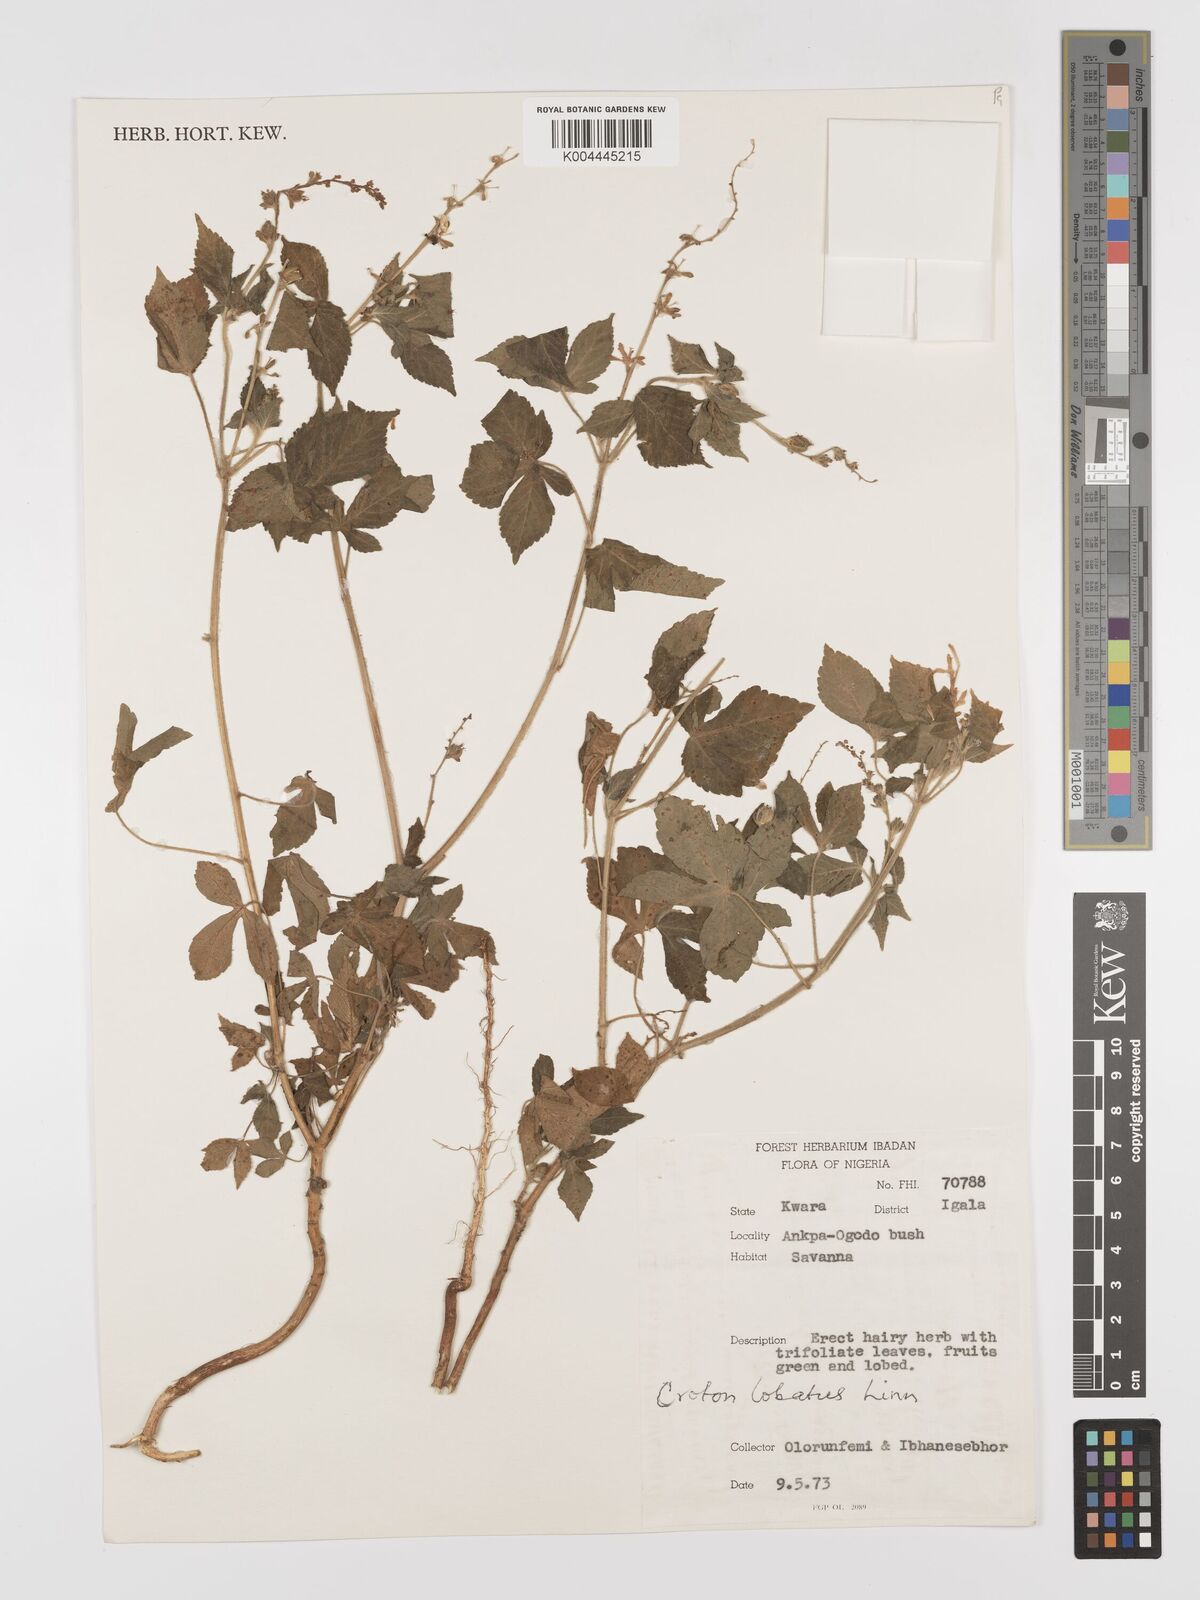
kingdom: Plantae
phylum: Tracheophyta
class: Magnoliopsida
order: Malpighiales
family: Euphorbiaceae
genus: Astraea
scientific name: Astraea lobata
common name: Lobed croton
